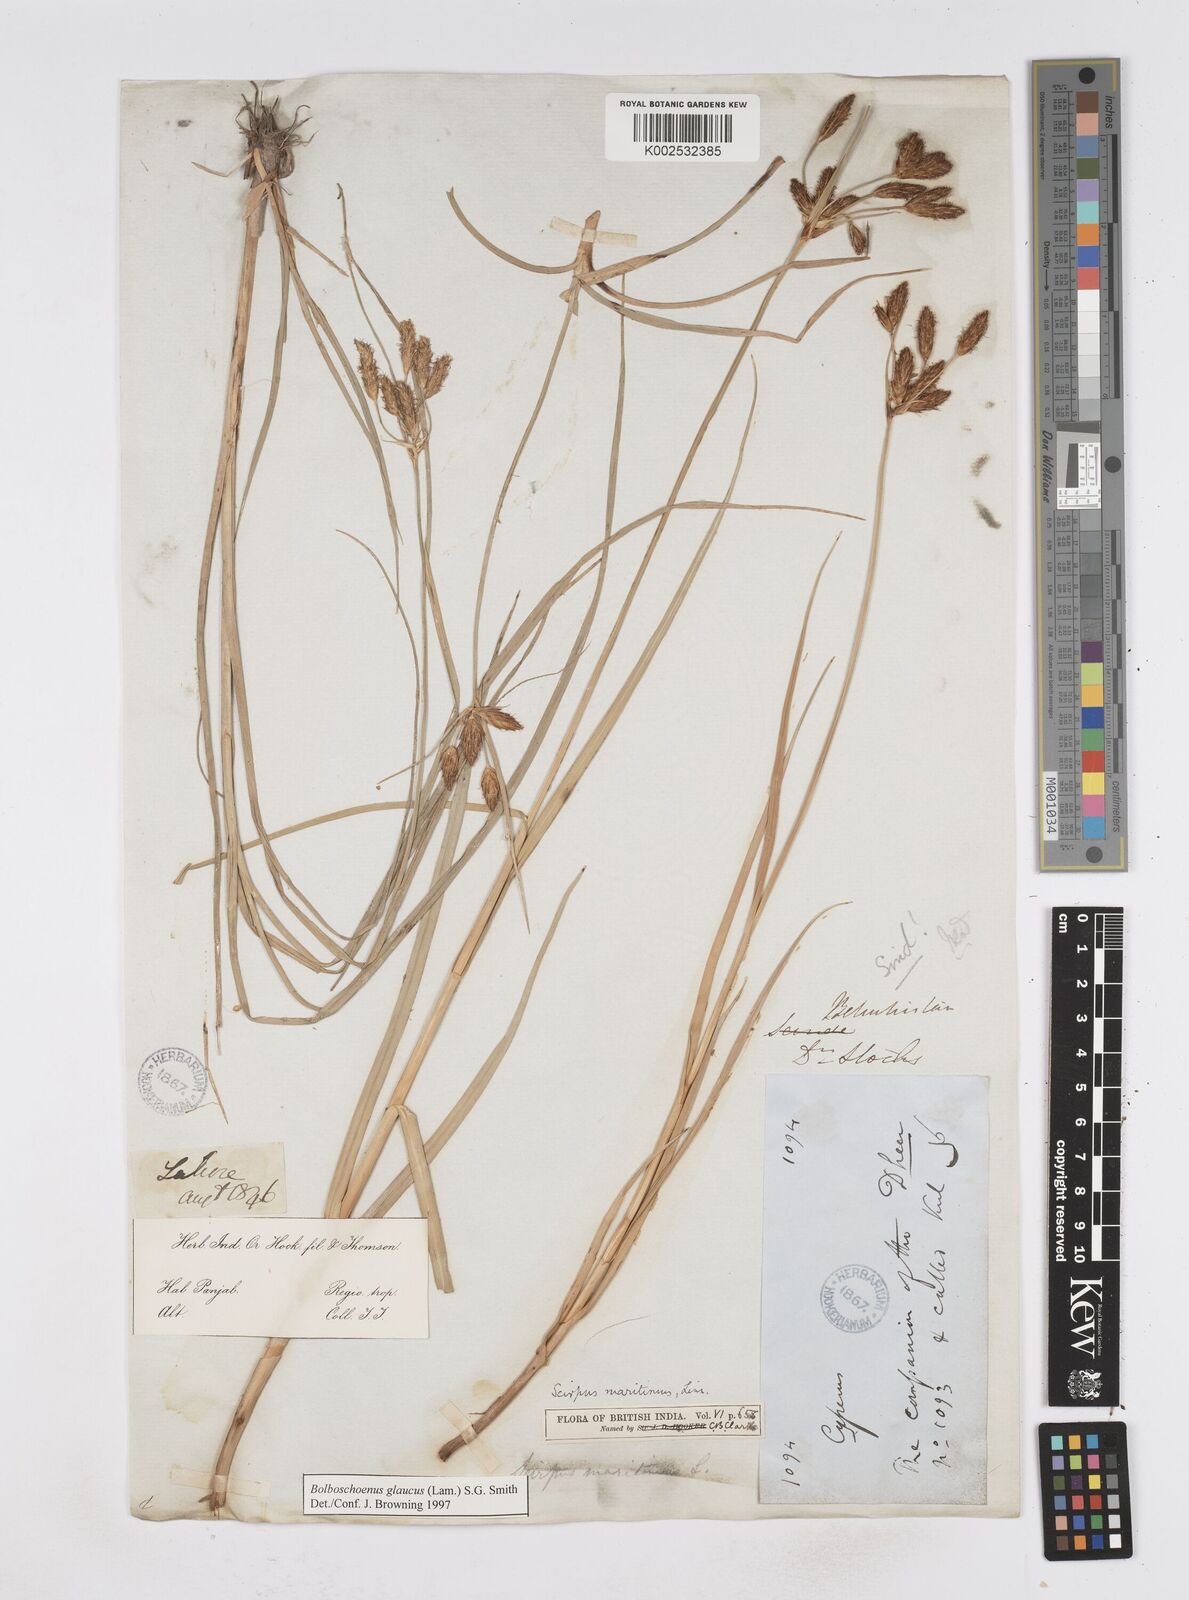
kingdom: Plantae
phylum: Tracheophyta
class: Liliopsida
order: Poales
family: Cyperaceae
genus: Bolboschoenus
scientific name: Bolboschoenus maritimus
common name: Sea club-rush
